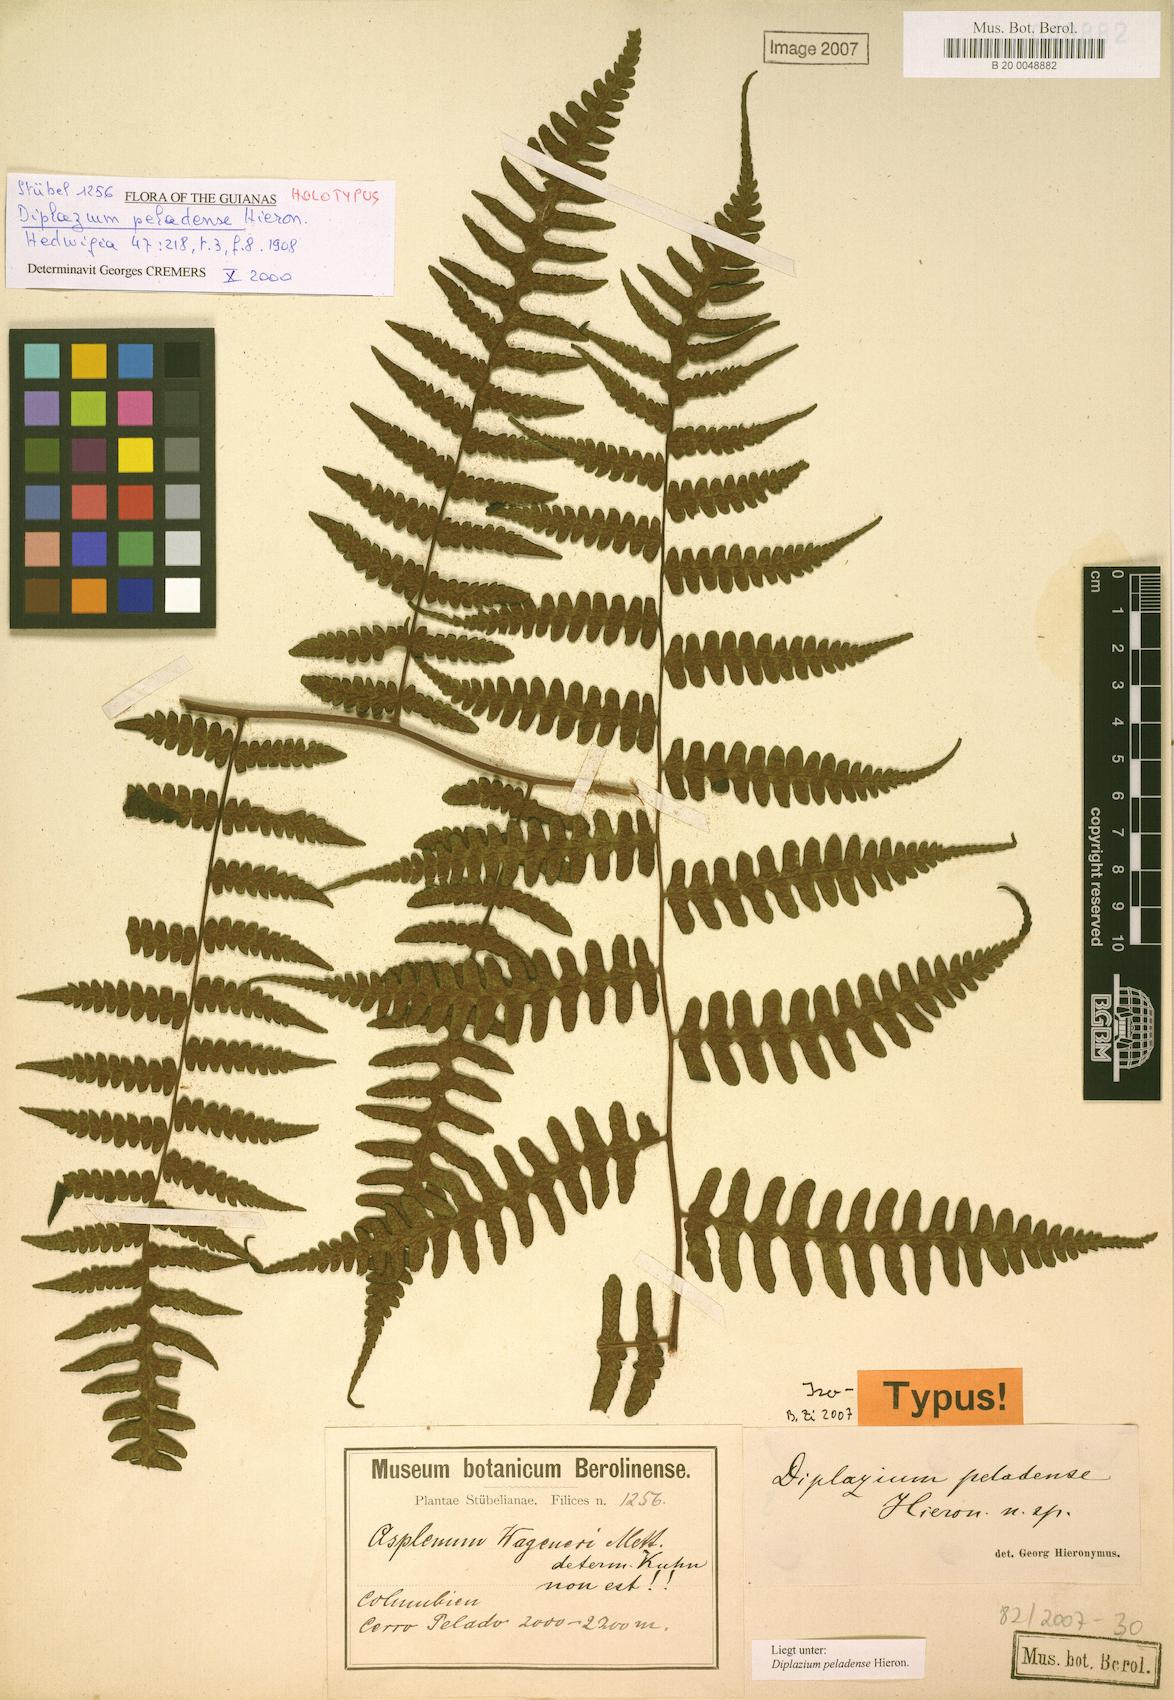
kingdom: Plantae
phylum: Tracheophyta
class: Polypodiopsida
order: Polypodiales
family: Athyriaceae
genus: Diplazium
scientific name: Diplazium peladense
